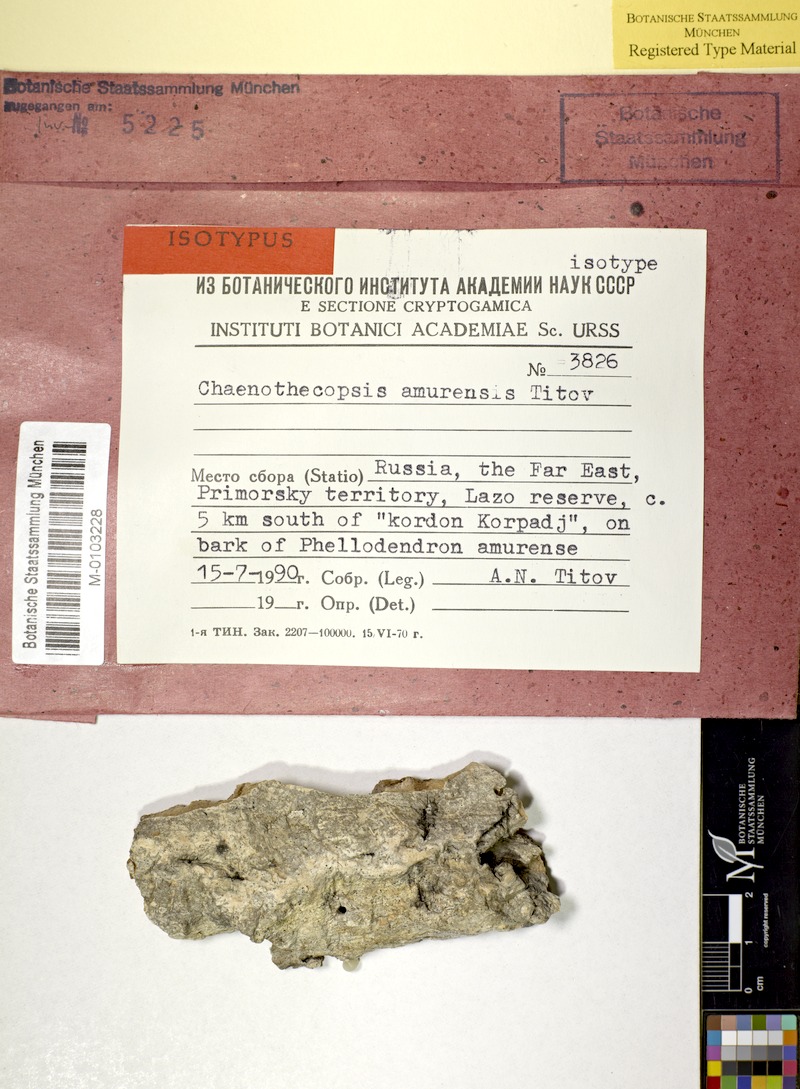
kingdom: Fungi
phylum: Ascomycota
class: Eurotiomycetes
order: Mycocaliciales
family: Mycocaliciaceae
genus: Chaenothecopsis
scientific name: Chaenothecopsis amurensis
